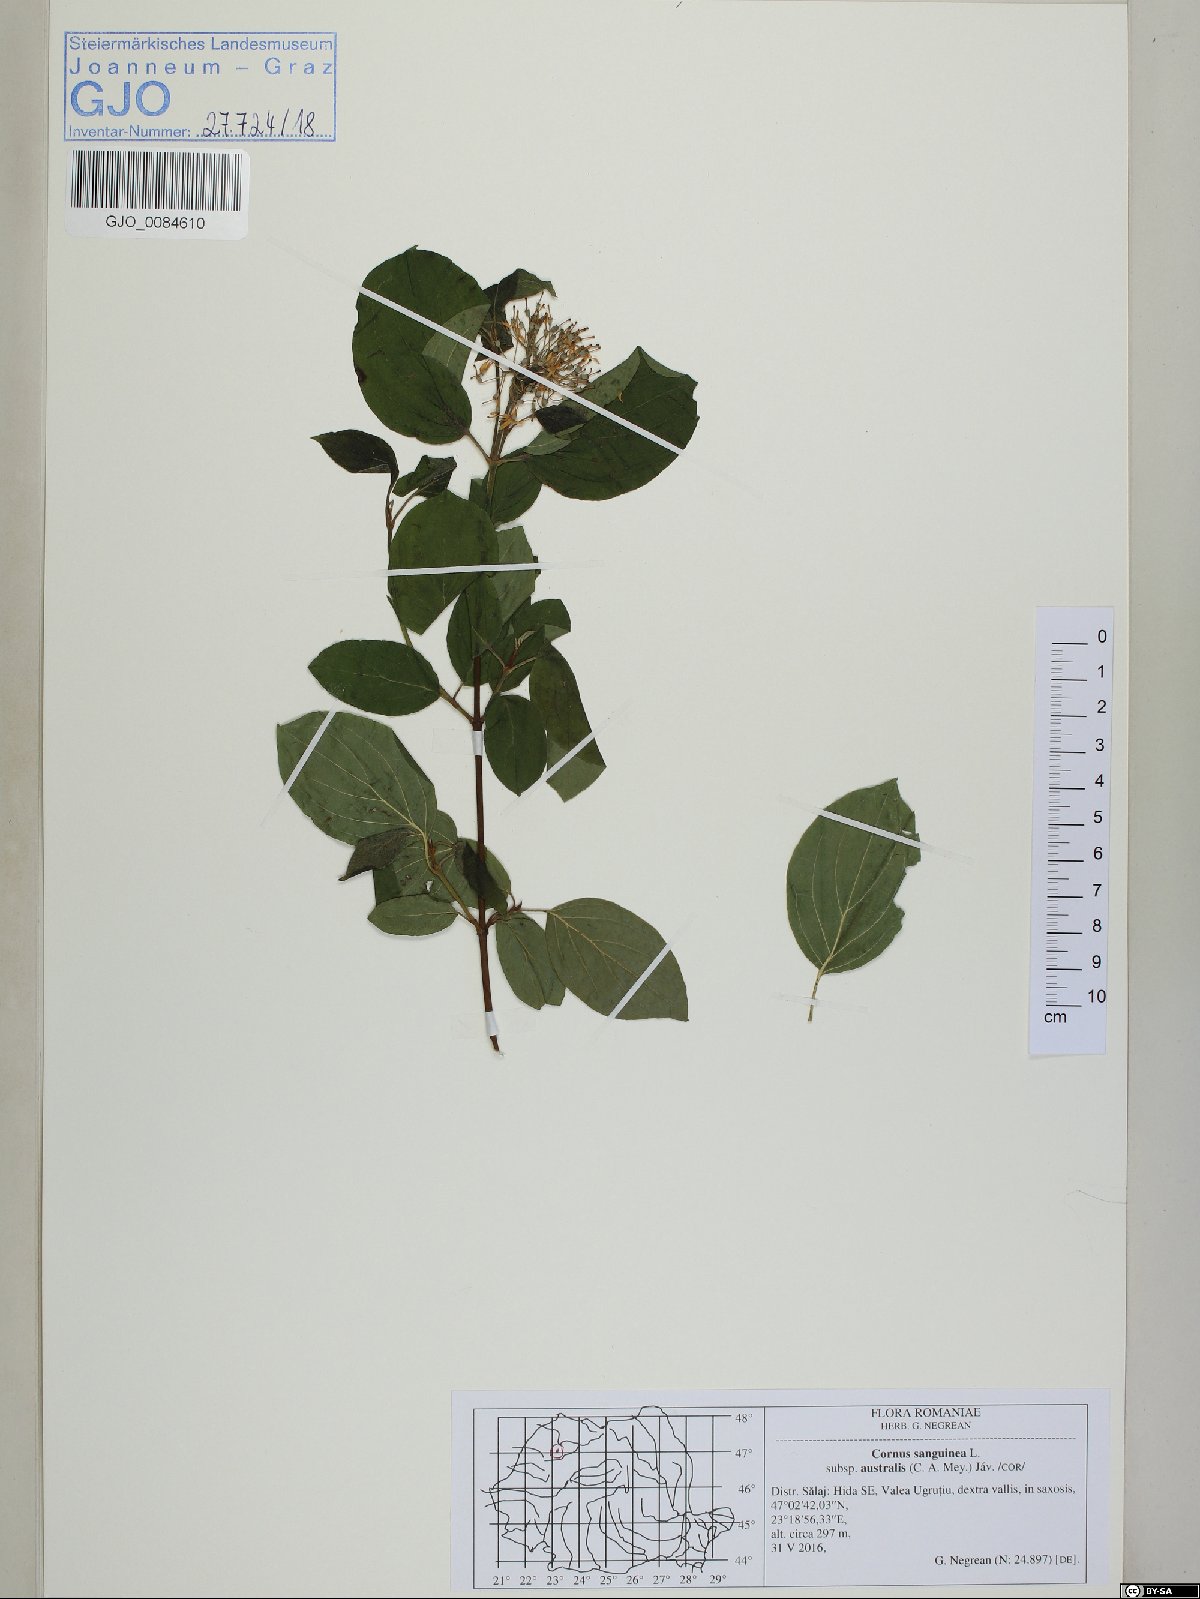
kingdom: Plantae
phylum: Tracheophyta
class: Magnoliopsida
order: Cornales
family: Cornaceae
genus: Cornus
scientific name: Cornus sanguinea
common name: Dogwood
